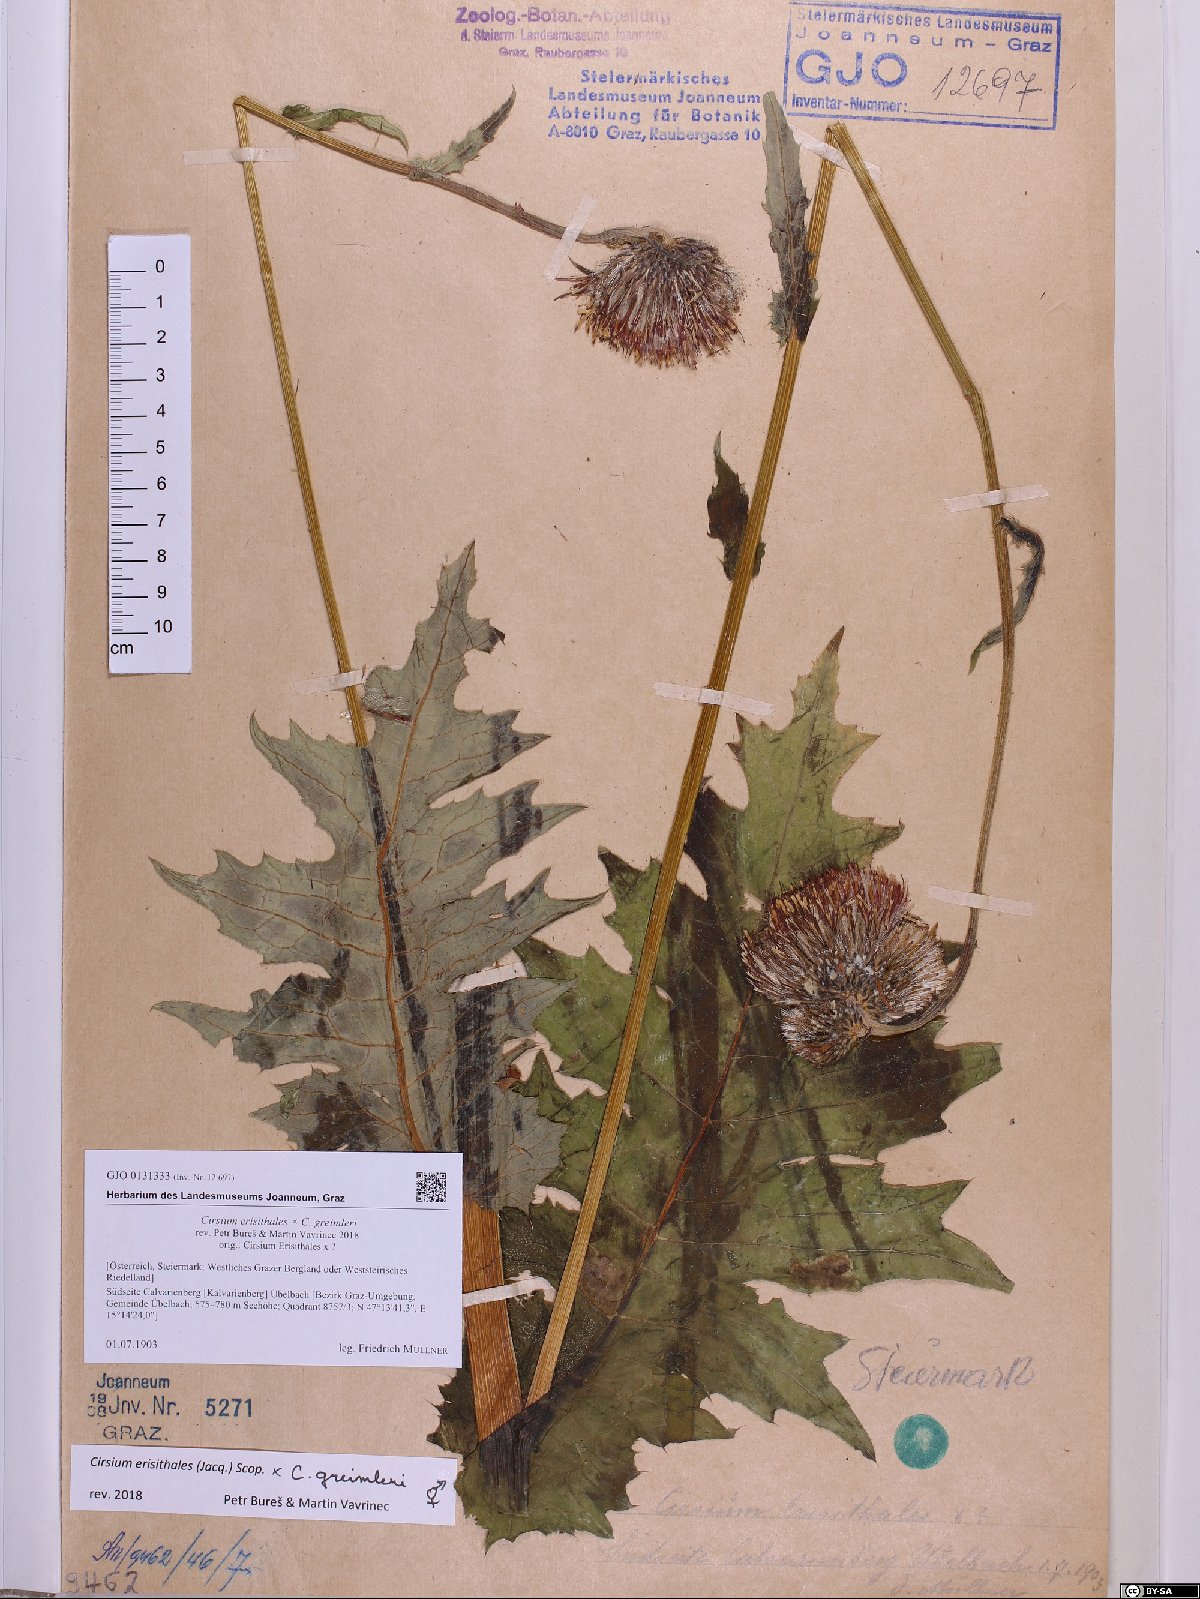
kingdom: Plantae
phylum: Tracheophyta
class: Magnoliopsida
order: Asterales
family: Asteraceae
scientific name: Asteraceae
